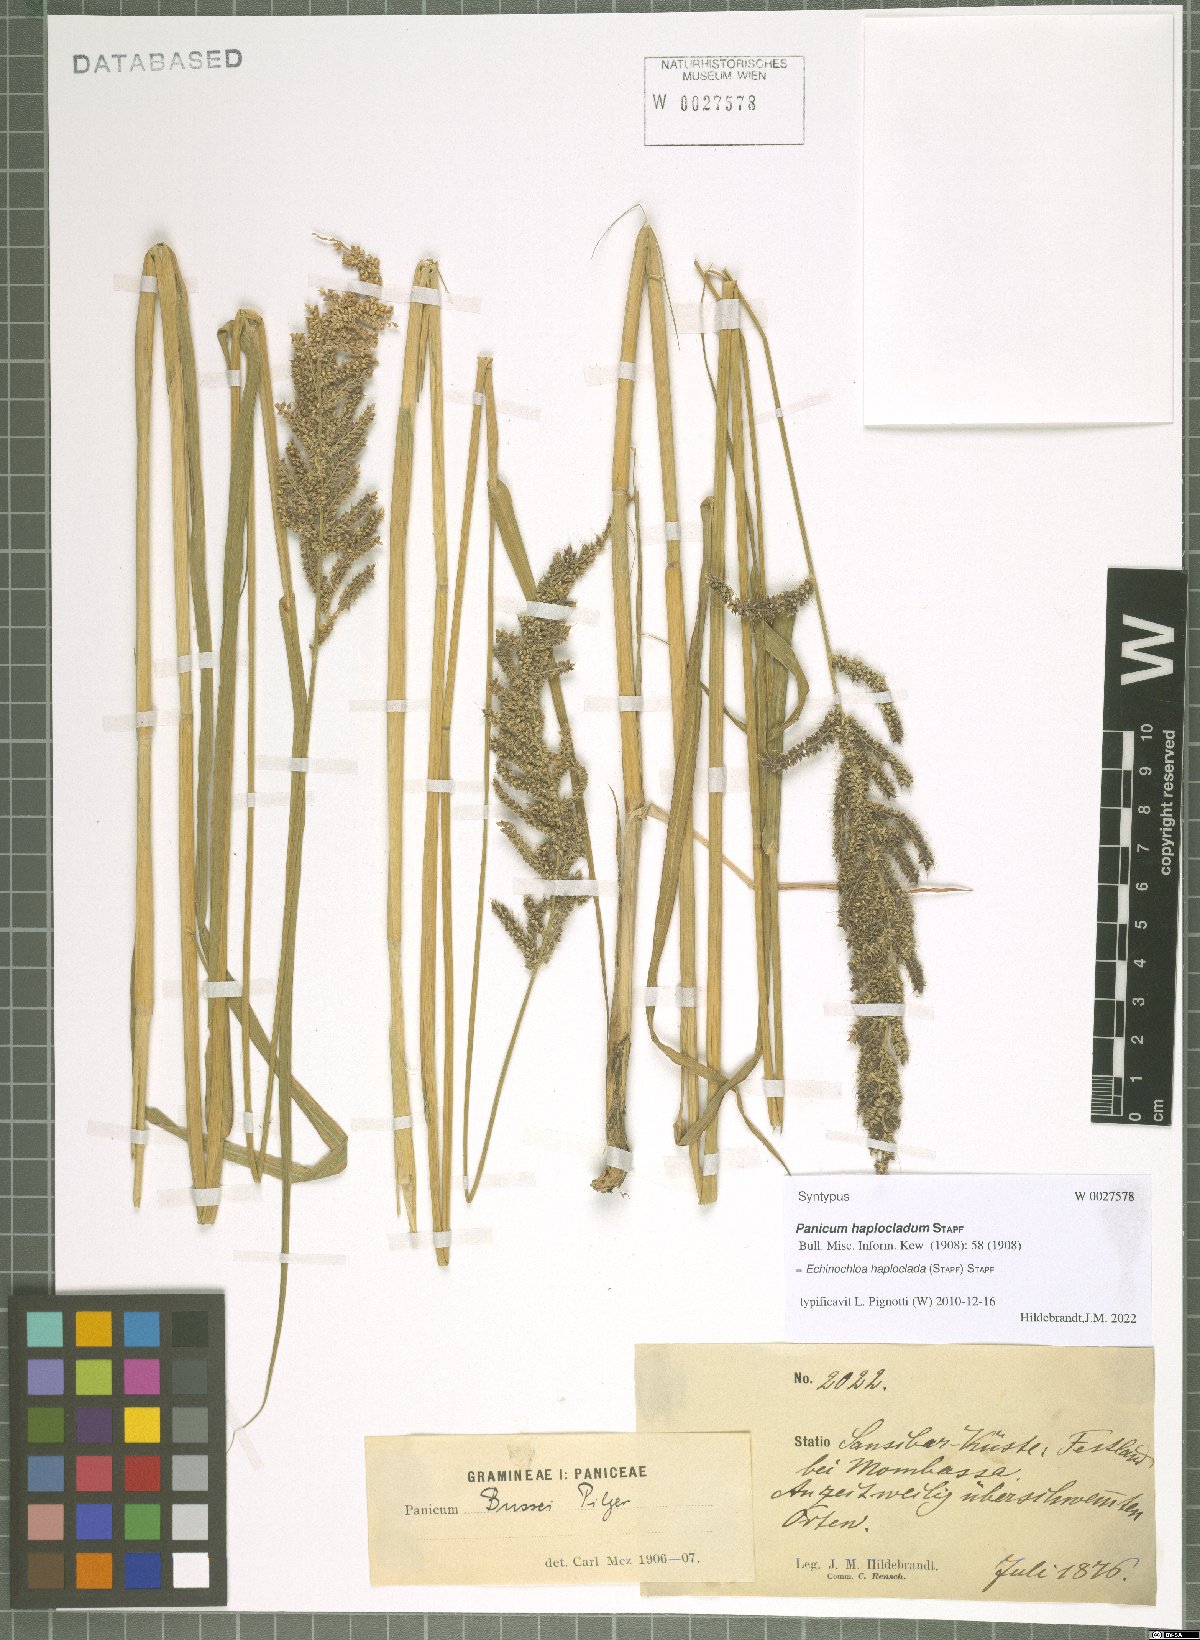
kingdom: Plantae
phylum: Tracheophyta
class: Liliopsida
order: Poales
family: Poaceae
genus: Echinochloa
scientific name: Echinochloa haploclada
